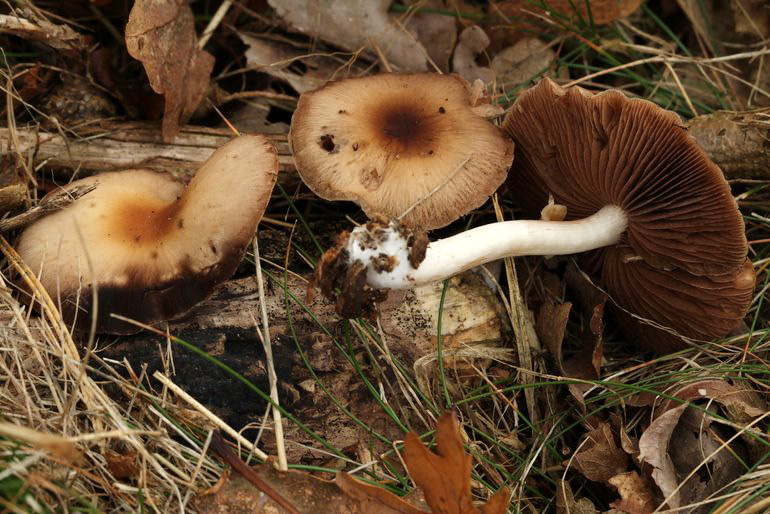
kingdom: Fungi
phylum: Basidiomycota
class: Agaricomycetes
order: Agaricales
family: Psathyrellaceae
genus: Psathyrella
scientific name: Psathyrella piluliformis
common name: lysstokket mørkhat
